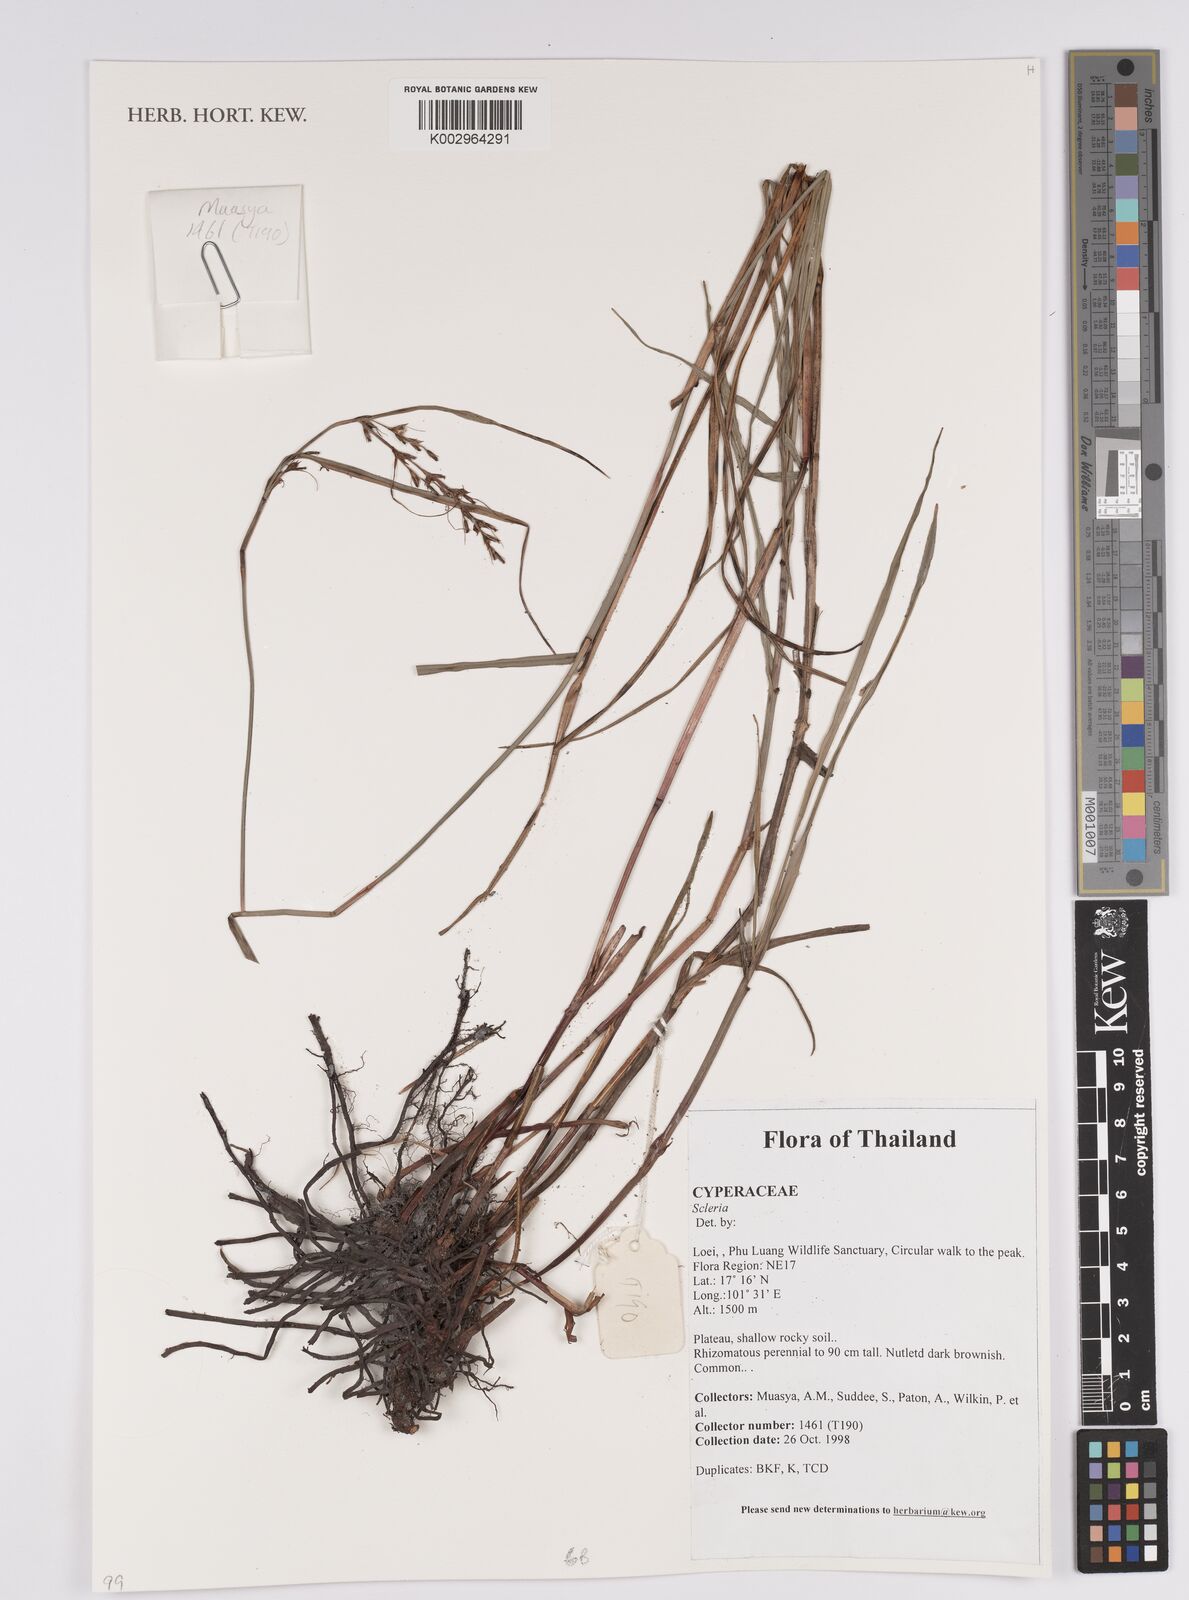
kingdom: Plantae
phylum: Tracheophyta
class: Liliopsida
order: Poales
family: Cyperaceae
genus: Scleria
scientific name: Scleria
